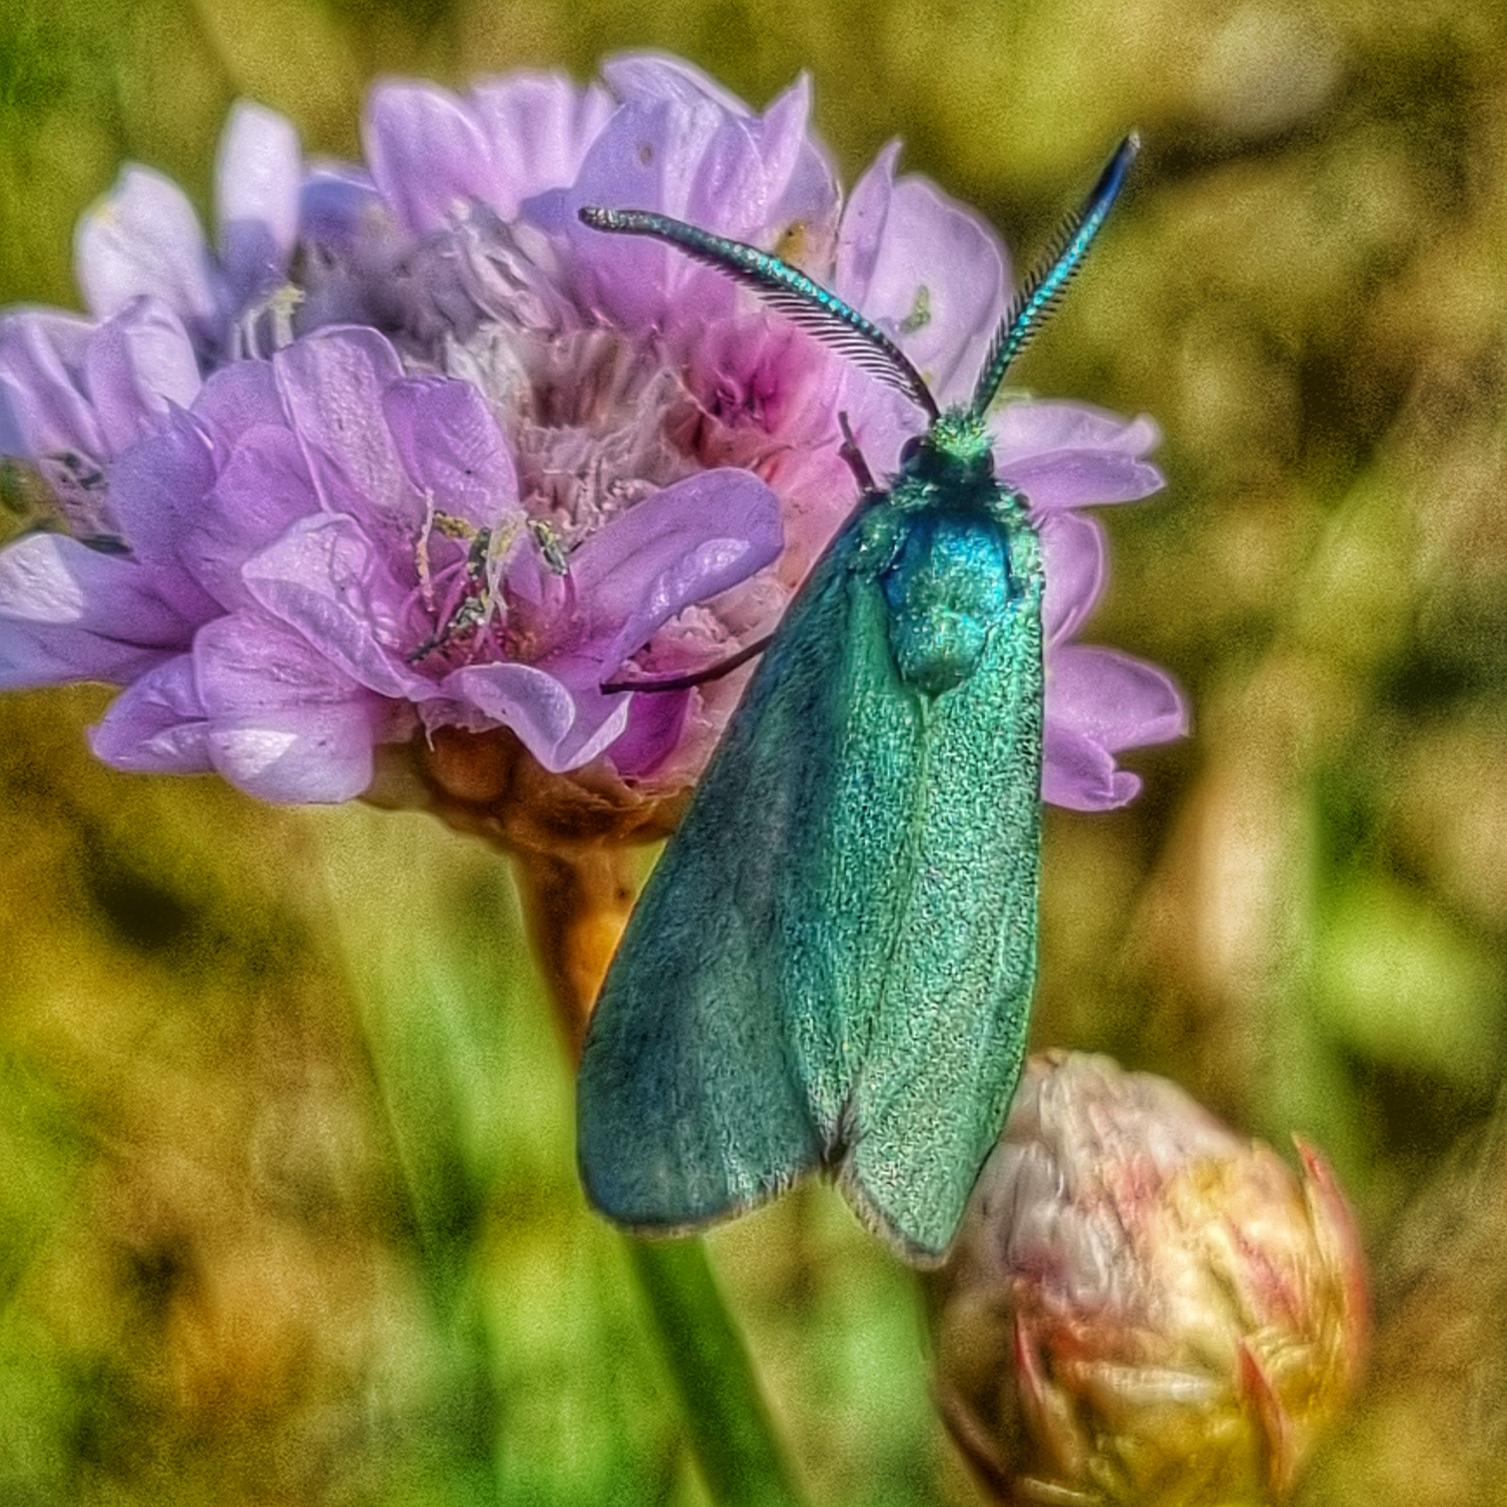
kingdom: Animalia
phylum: Arthropoda
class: Insecta
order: Lepidoptera
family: Zygaenidae
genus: Adscita
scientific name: Adscita statices
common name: Metalvinge
